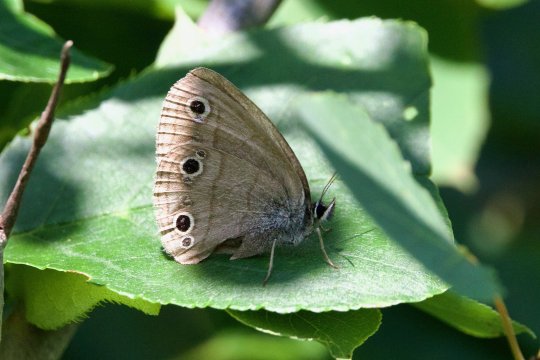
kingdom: Animalia
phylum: Arthropoda
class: Insecta
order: Lepidoptera
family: Nymphalidae
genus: Euptychia
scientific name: Euptychia cymela
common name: Little Wood Satyr
